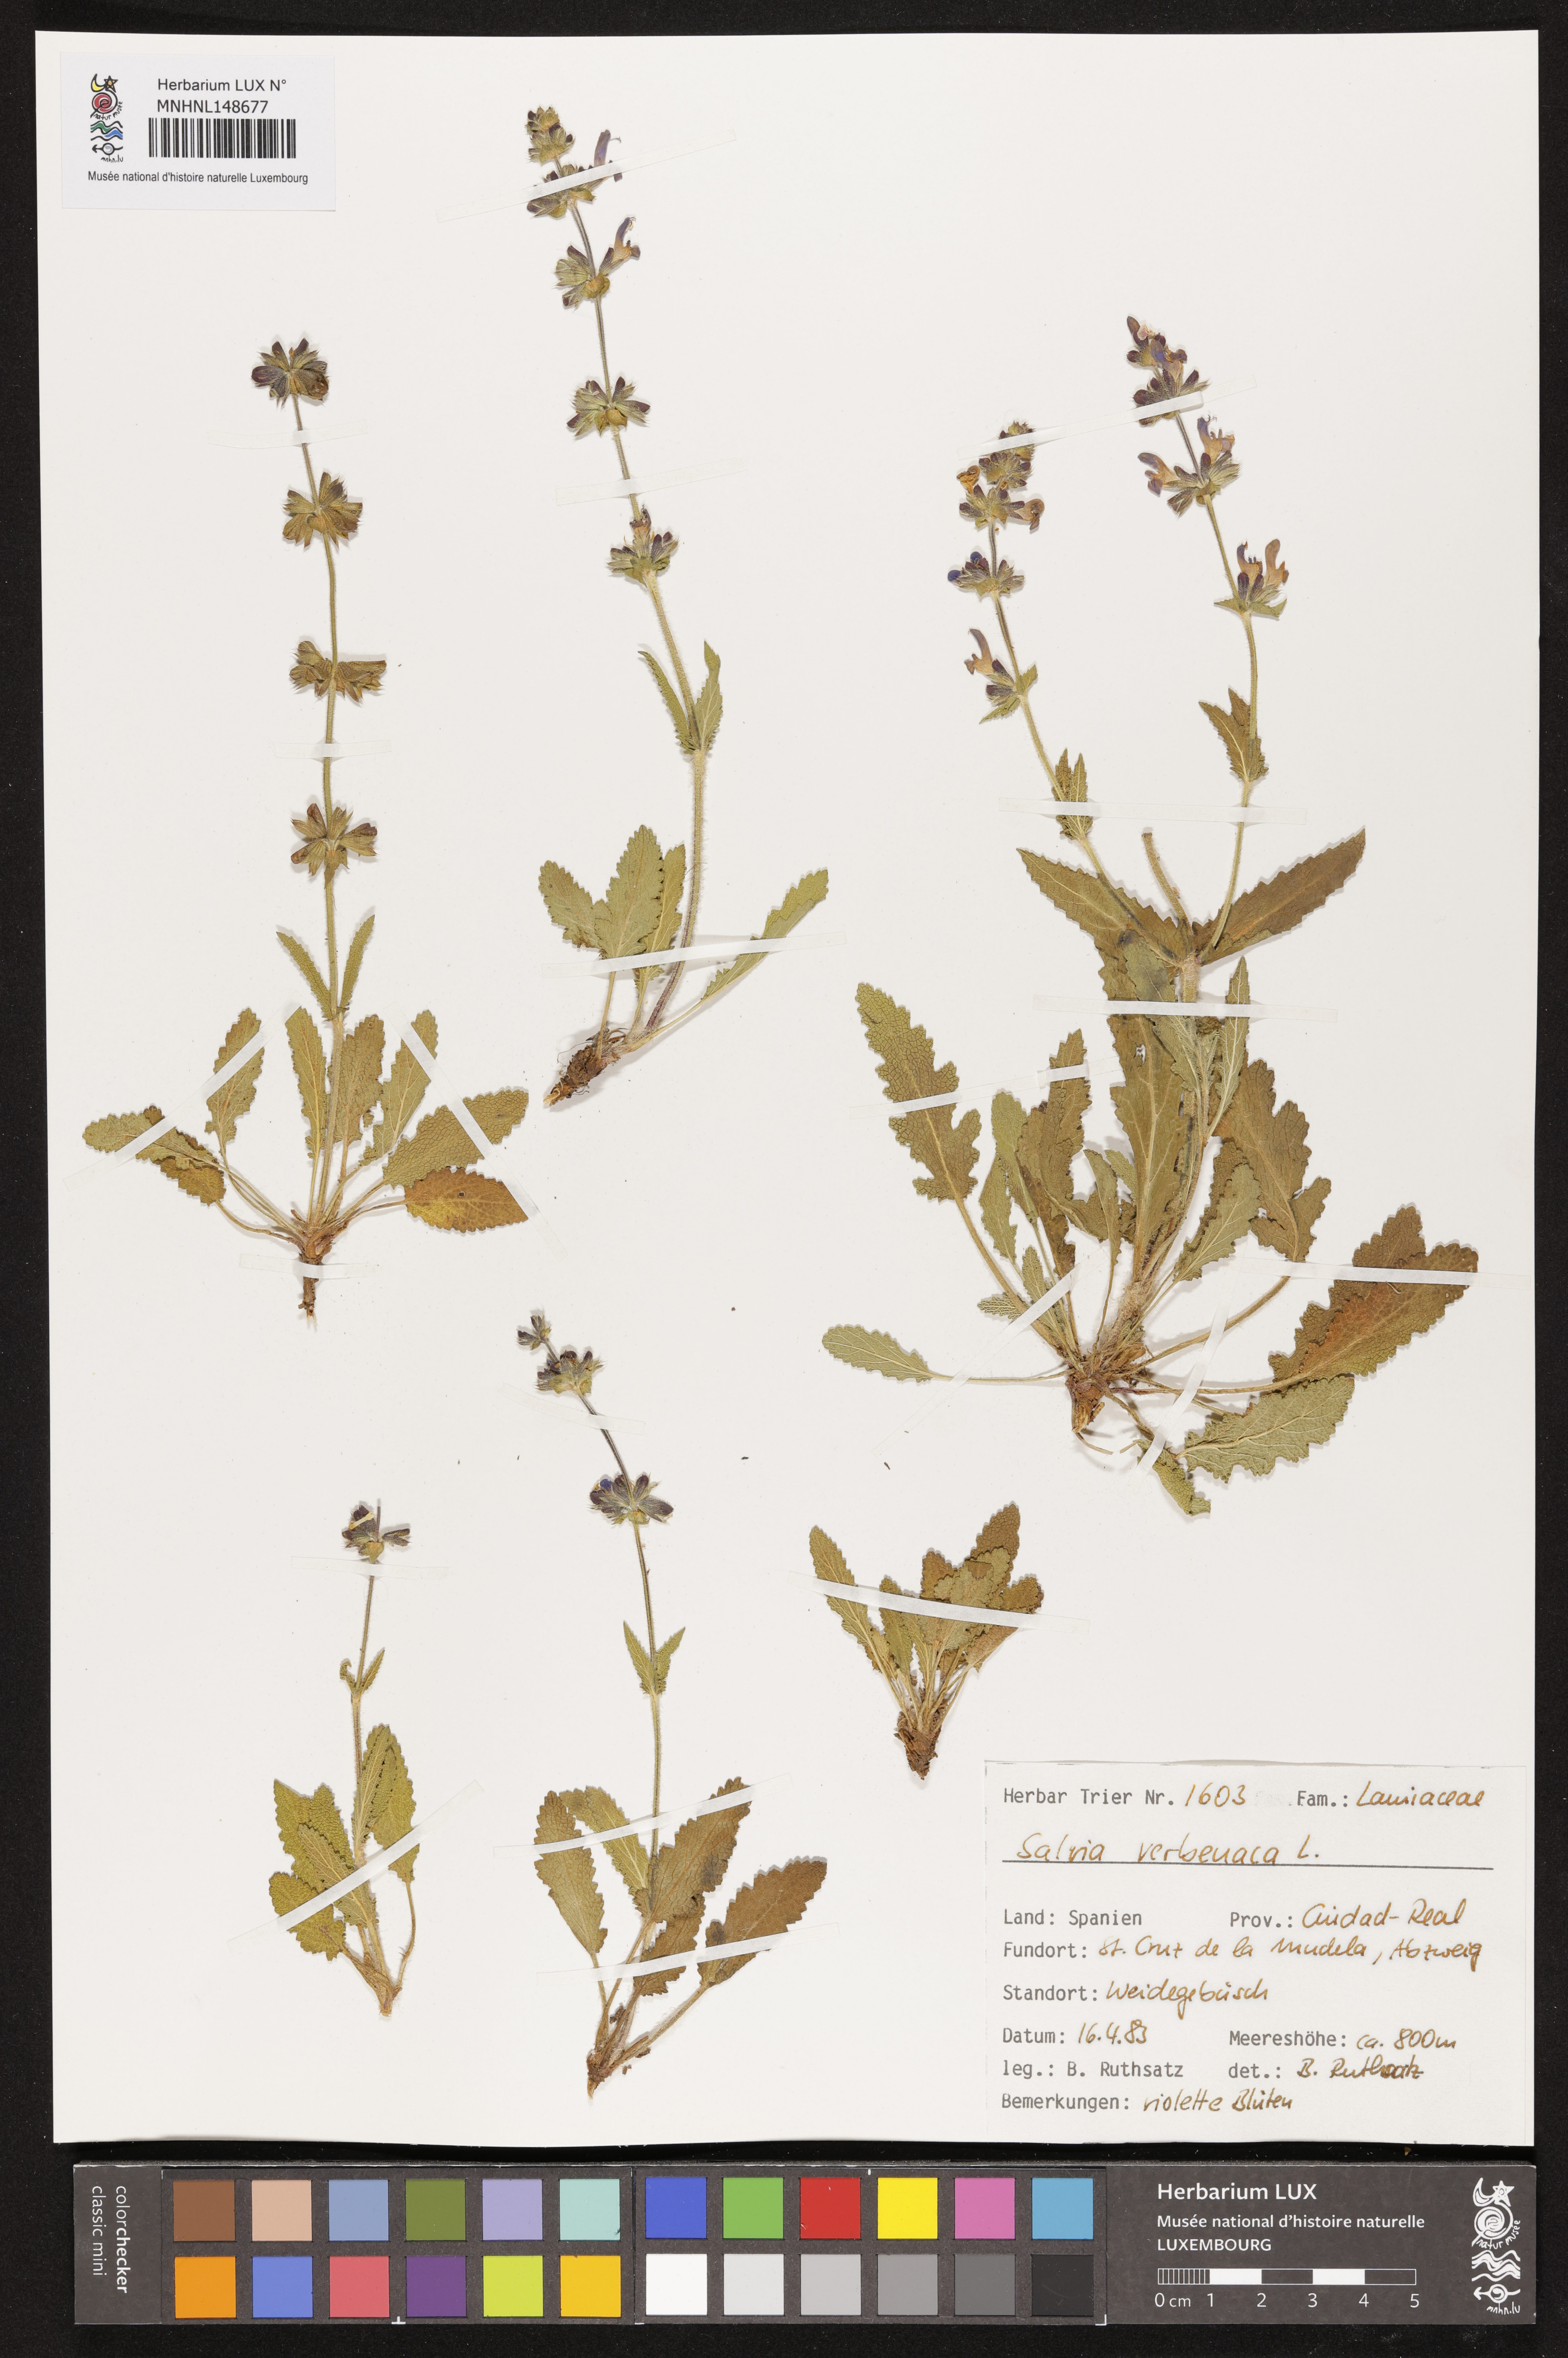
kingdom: Plantae
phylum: Tracheophyta
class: Magnoliopsida
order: Lamiales
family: Lamiaceae
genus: Salvia
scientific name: Salvia verbenaca
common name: Wild clary
